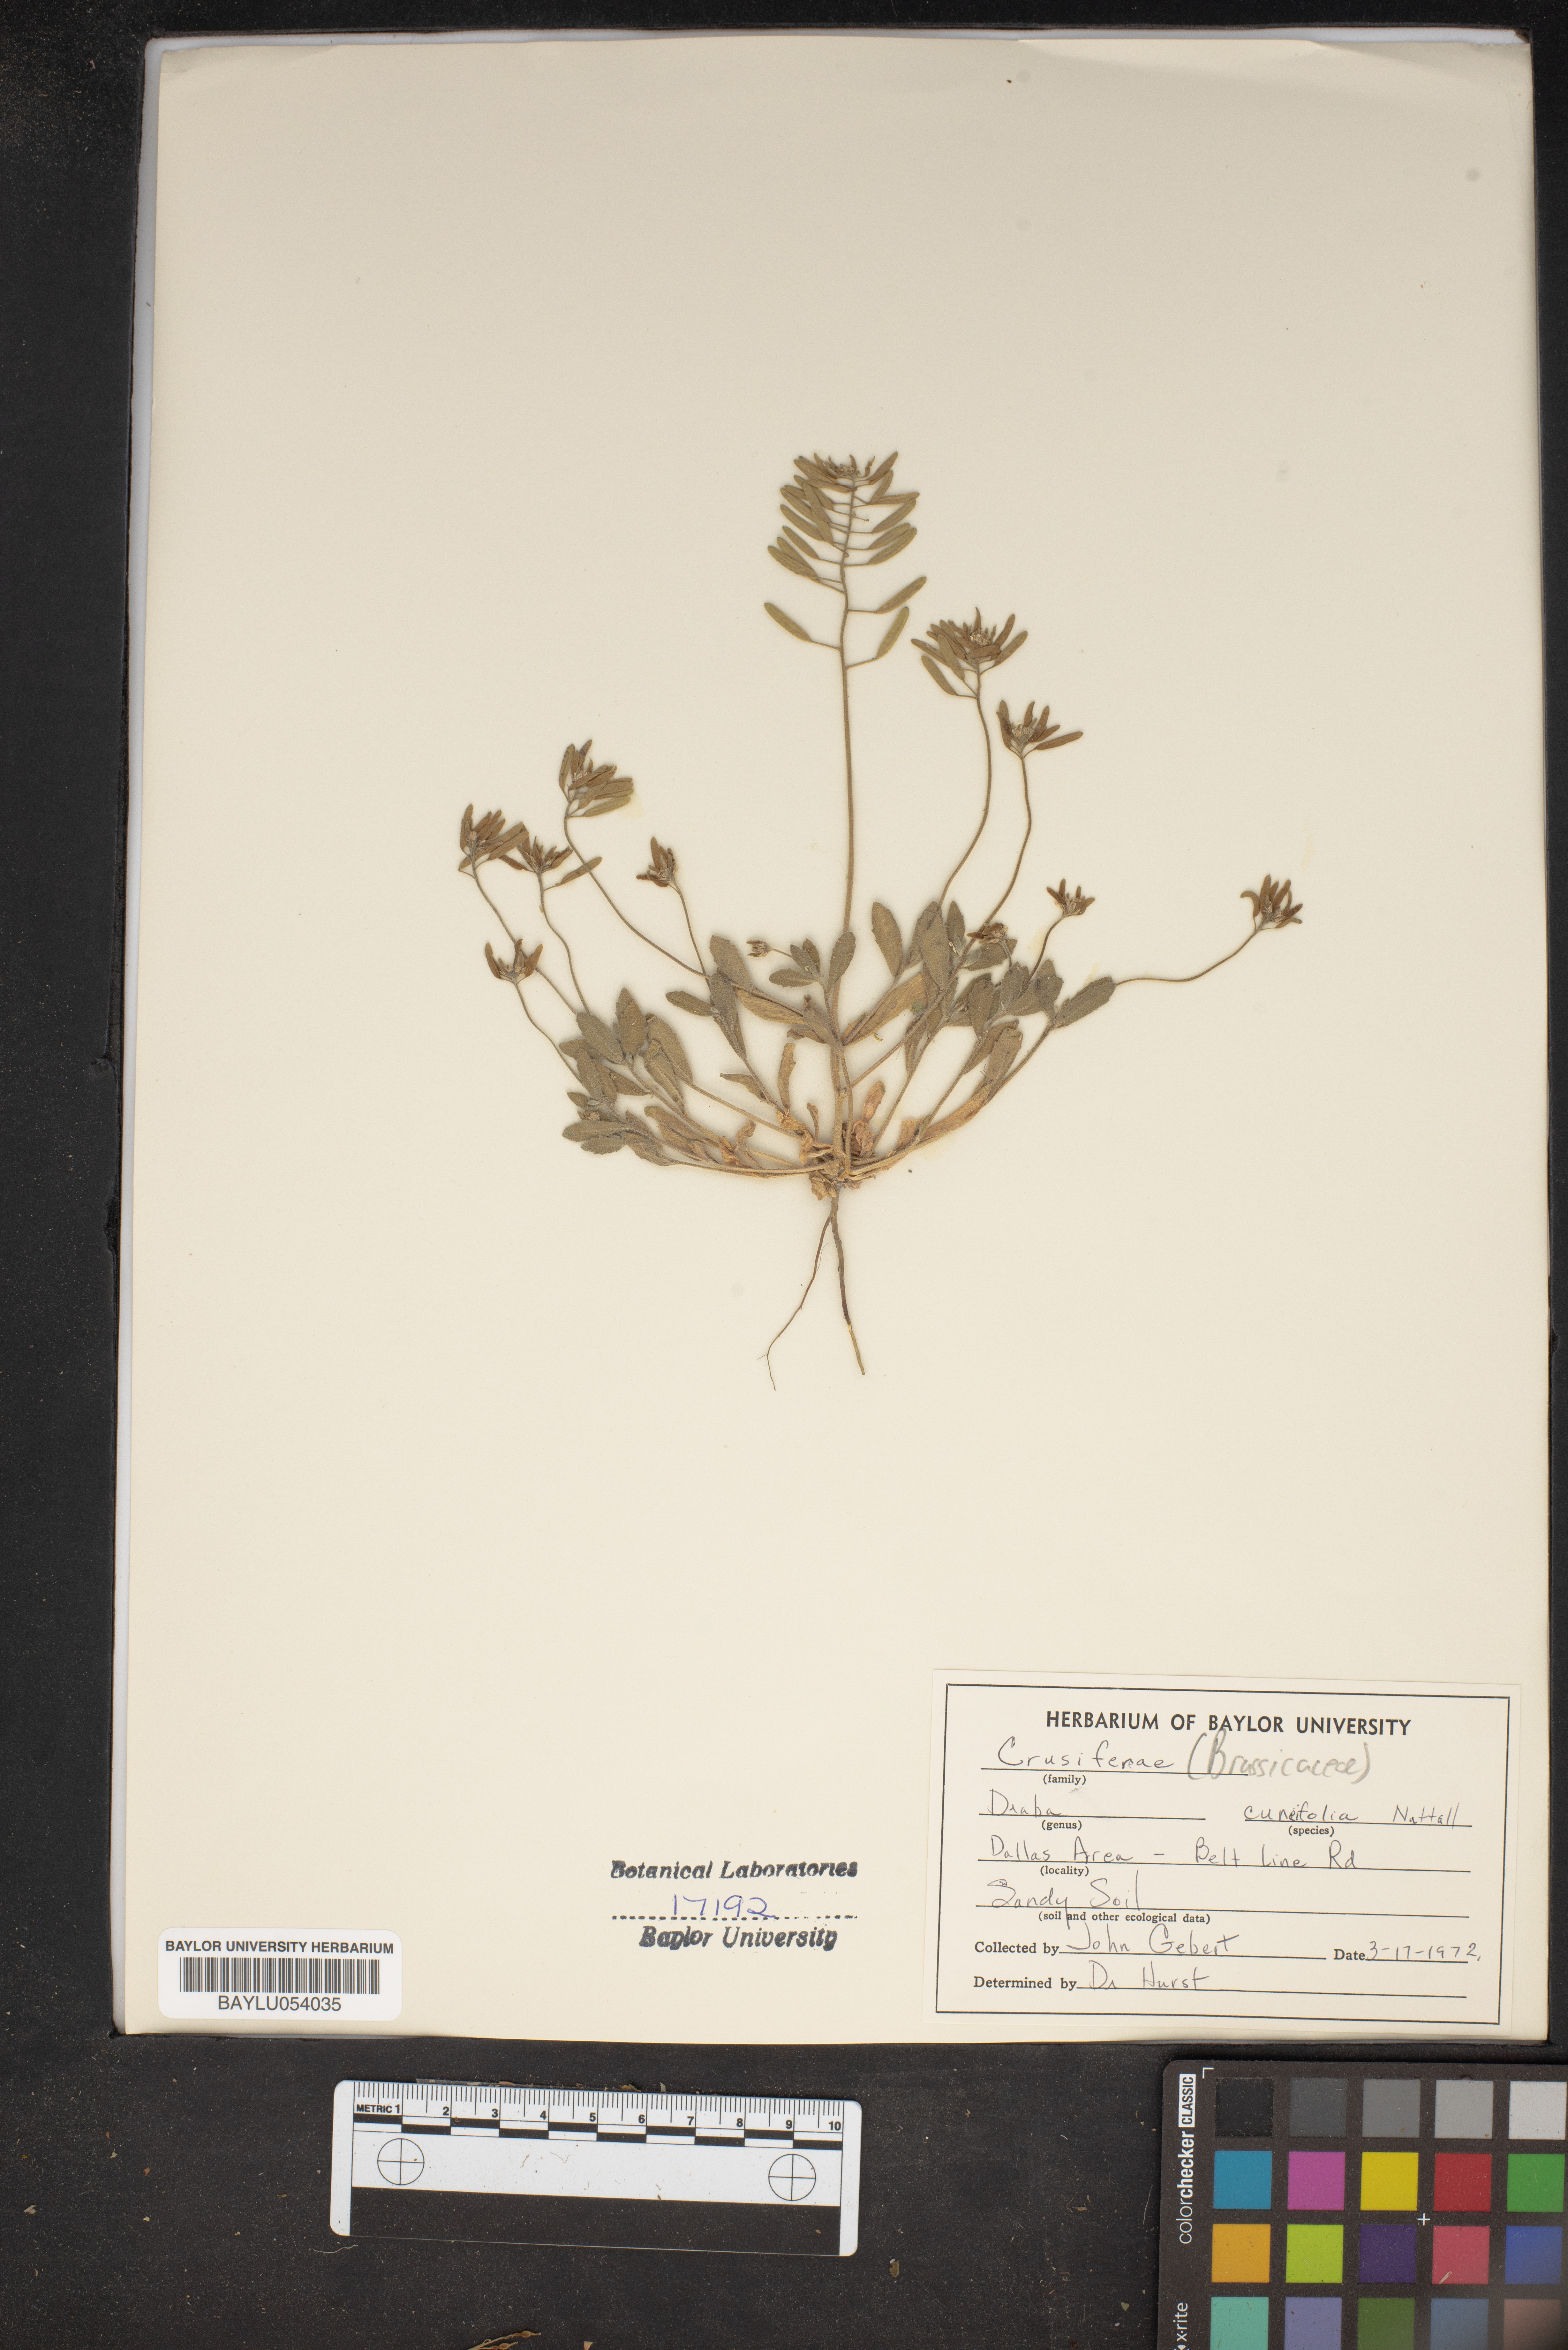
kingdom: Plantae
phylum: Tracheophyta
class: Magnoliopsida
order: Brassicales
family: Brassicaceae
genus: Tomostima
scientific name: Tomostima cuneifolia
